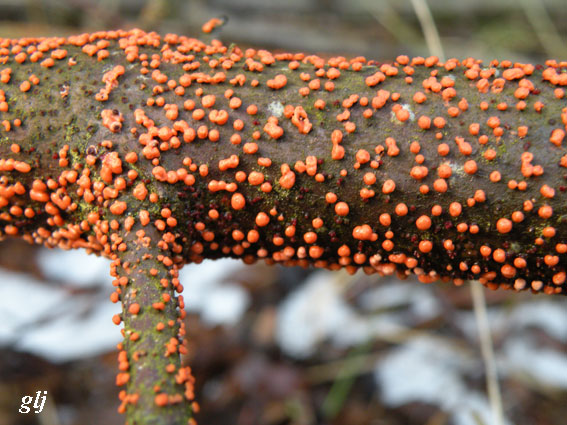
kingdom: Fungi
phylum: Ascomycota
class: Sordariomycetes
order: Hypocreales
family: Nectriaceae
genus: Nectria
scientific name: Nectria cinnabarina
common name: almindelig cinnobersvamp
